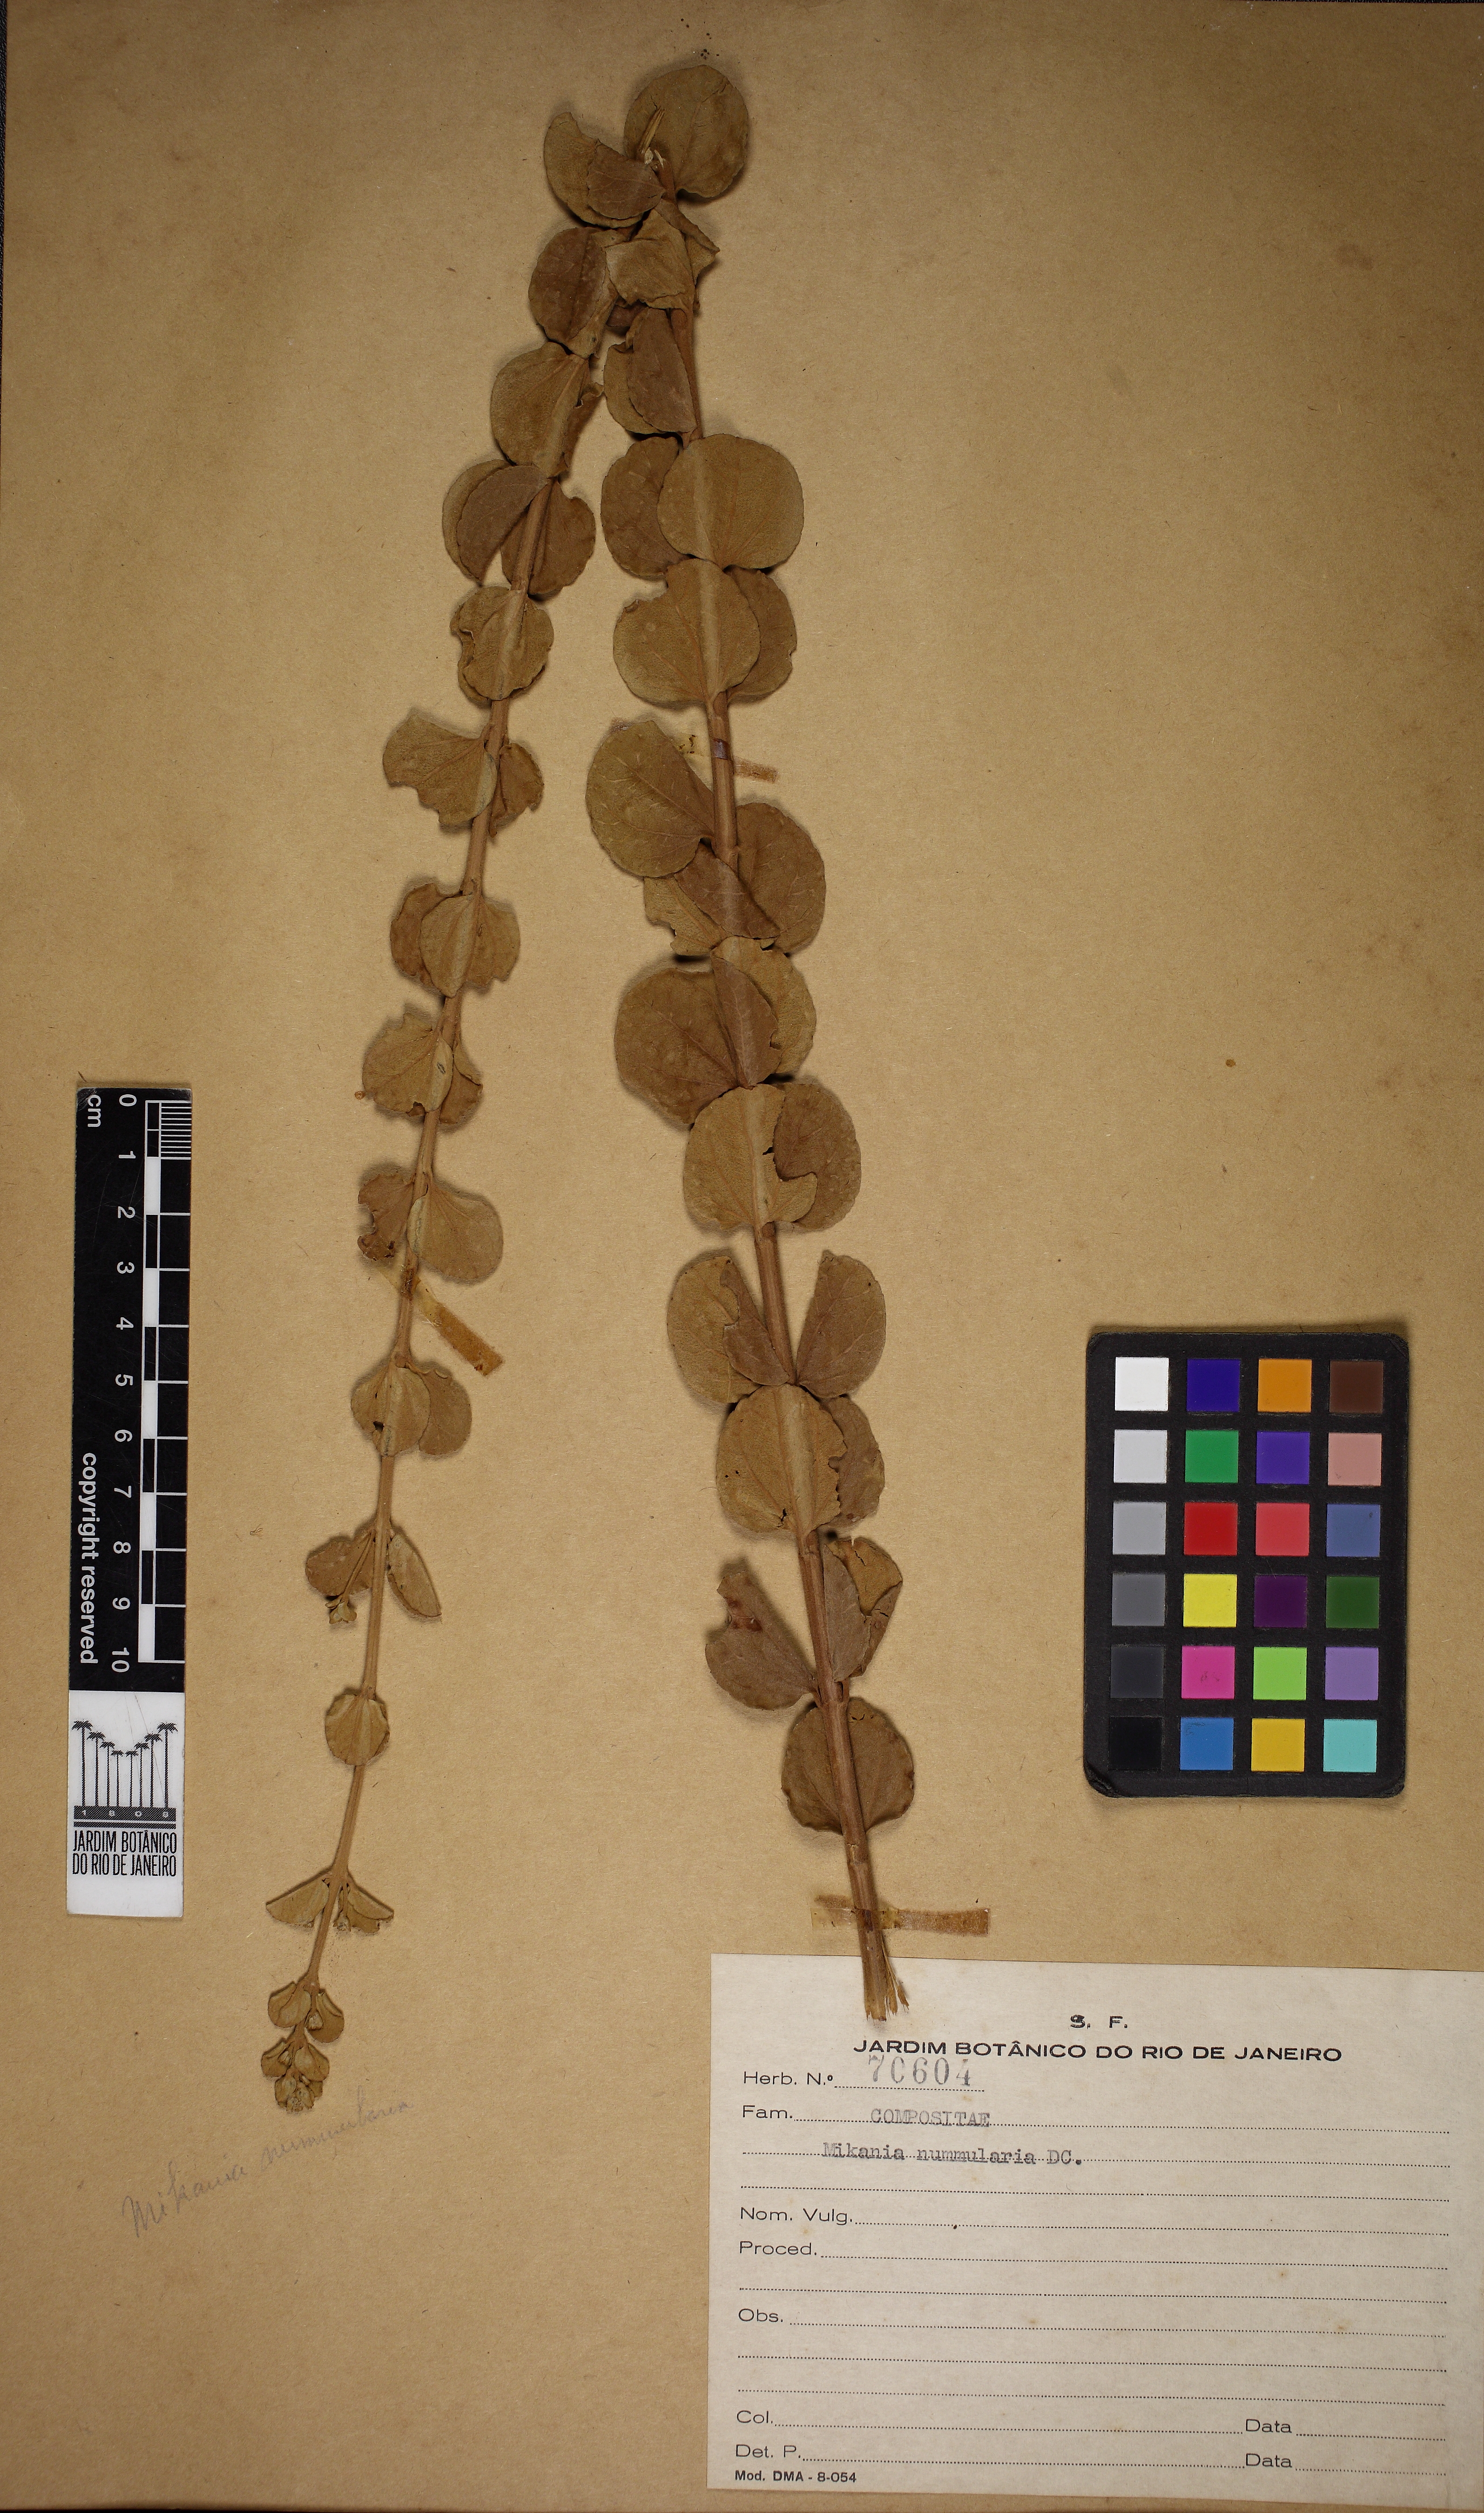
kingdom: Plantae
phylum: Tracheophyta
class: Magnoliopsida
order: Asterales
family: Asteraceae
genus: Mikania
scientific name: Mikania
